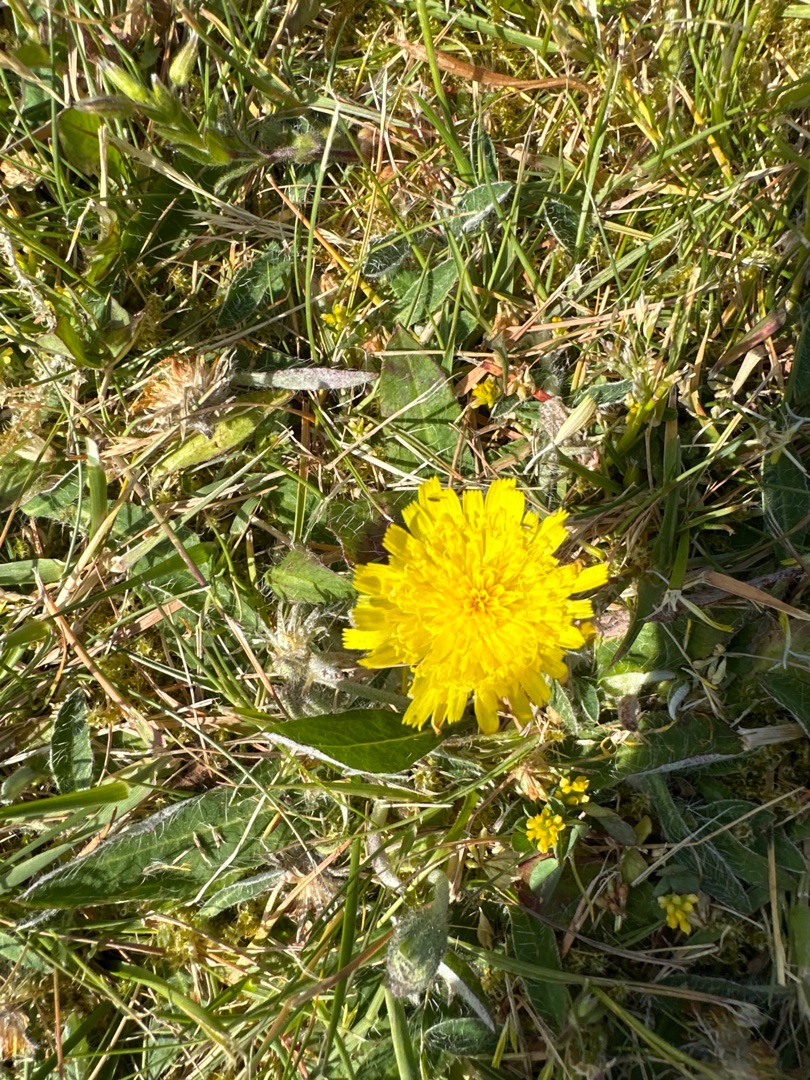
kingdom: Plantae
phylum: Tracheophyta
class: Magnoliopsida
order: Asterales
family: Asteraceae
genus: Pilosella
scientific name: Pilosella officinarum
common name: Håret høgeurt
